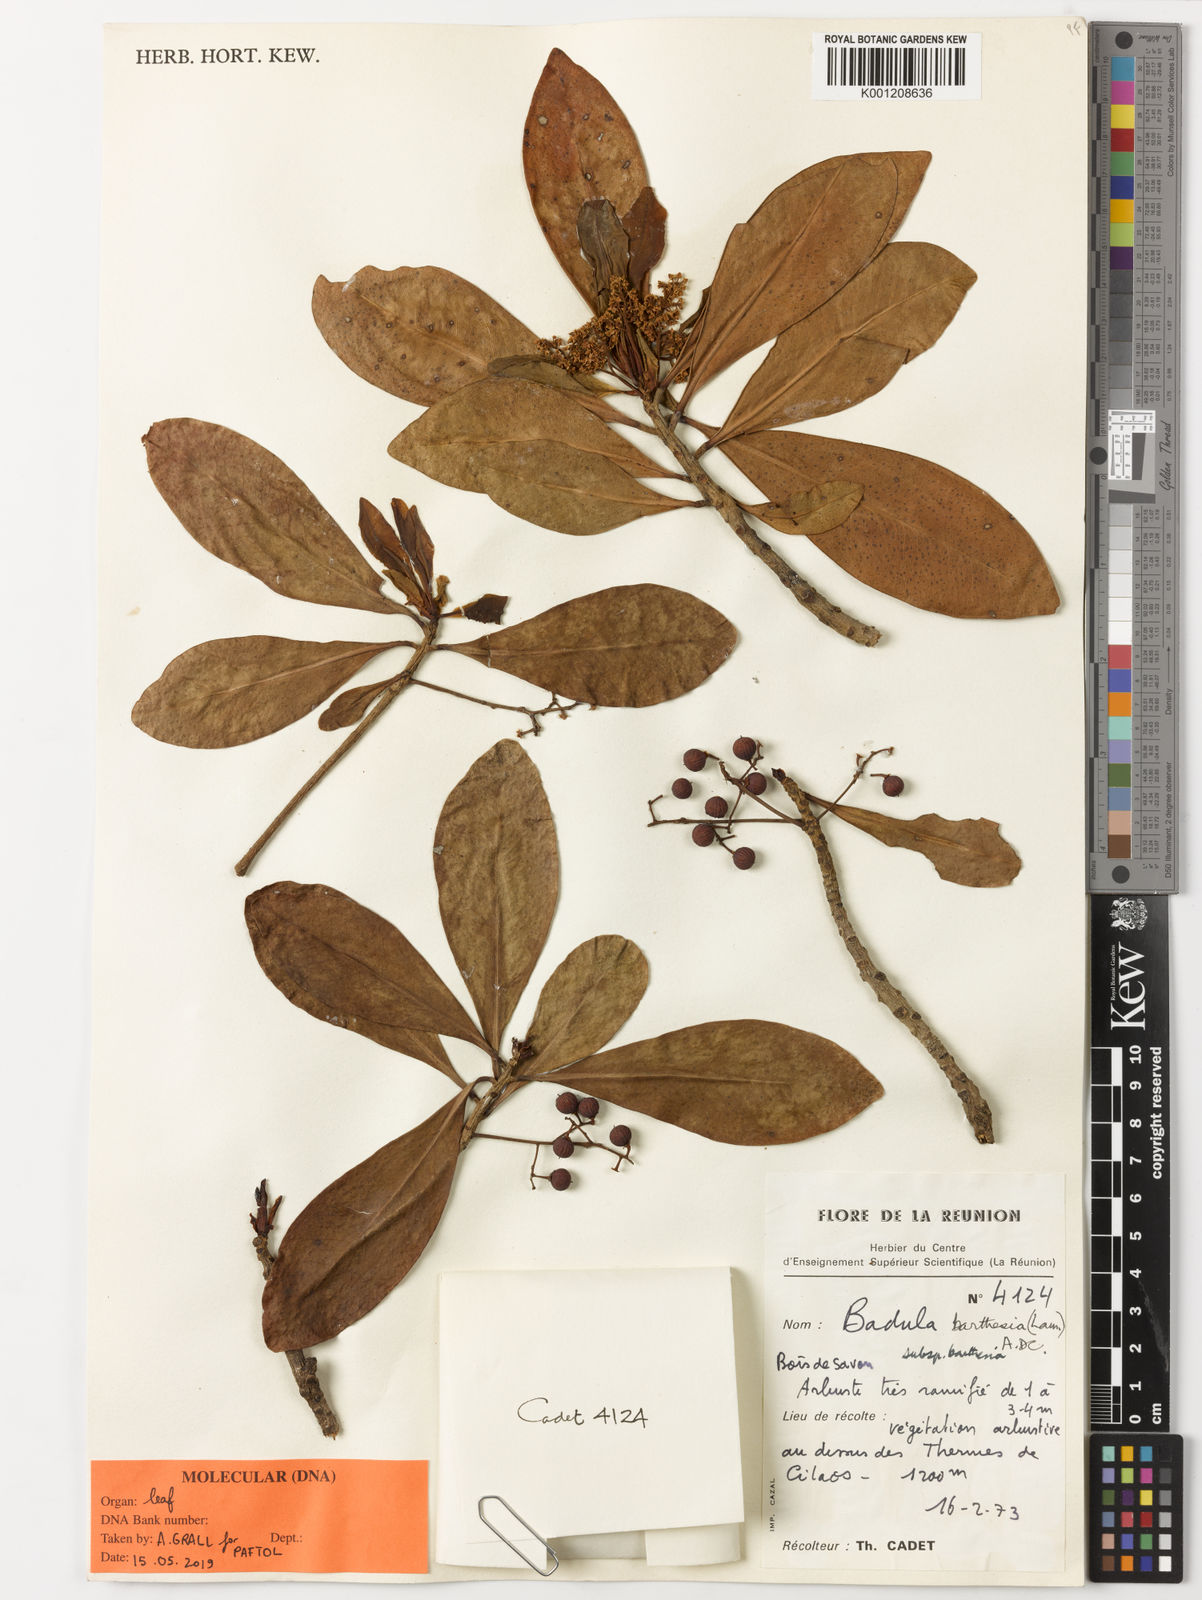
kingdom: Plantae
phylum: Tracheophyta
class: Magnoliopsida
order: Ericales
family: Primulaceae
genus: Badula
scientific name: Badula barthesia
